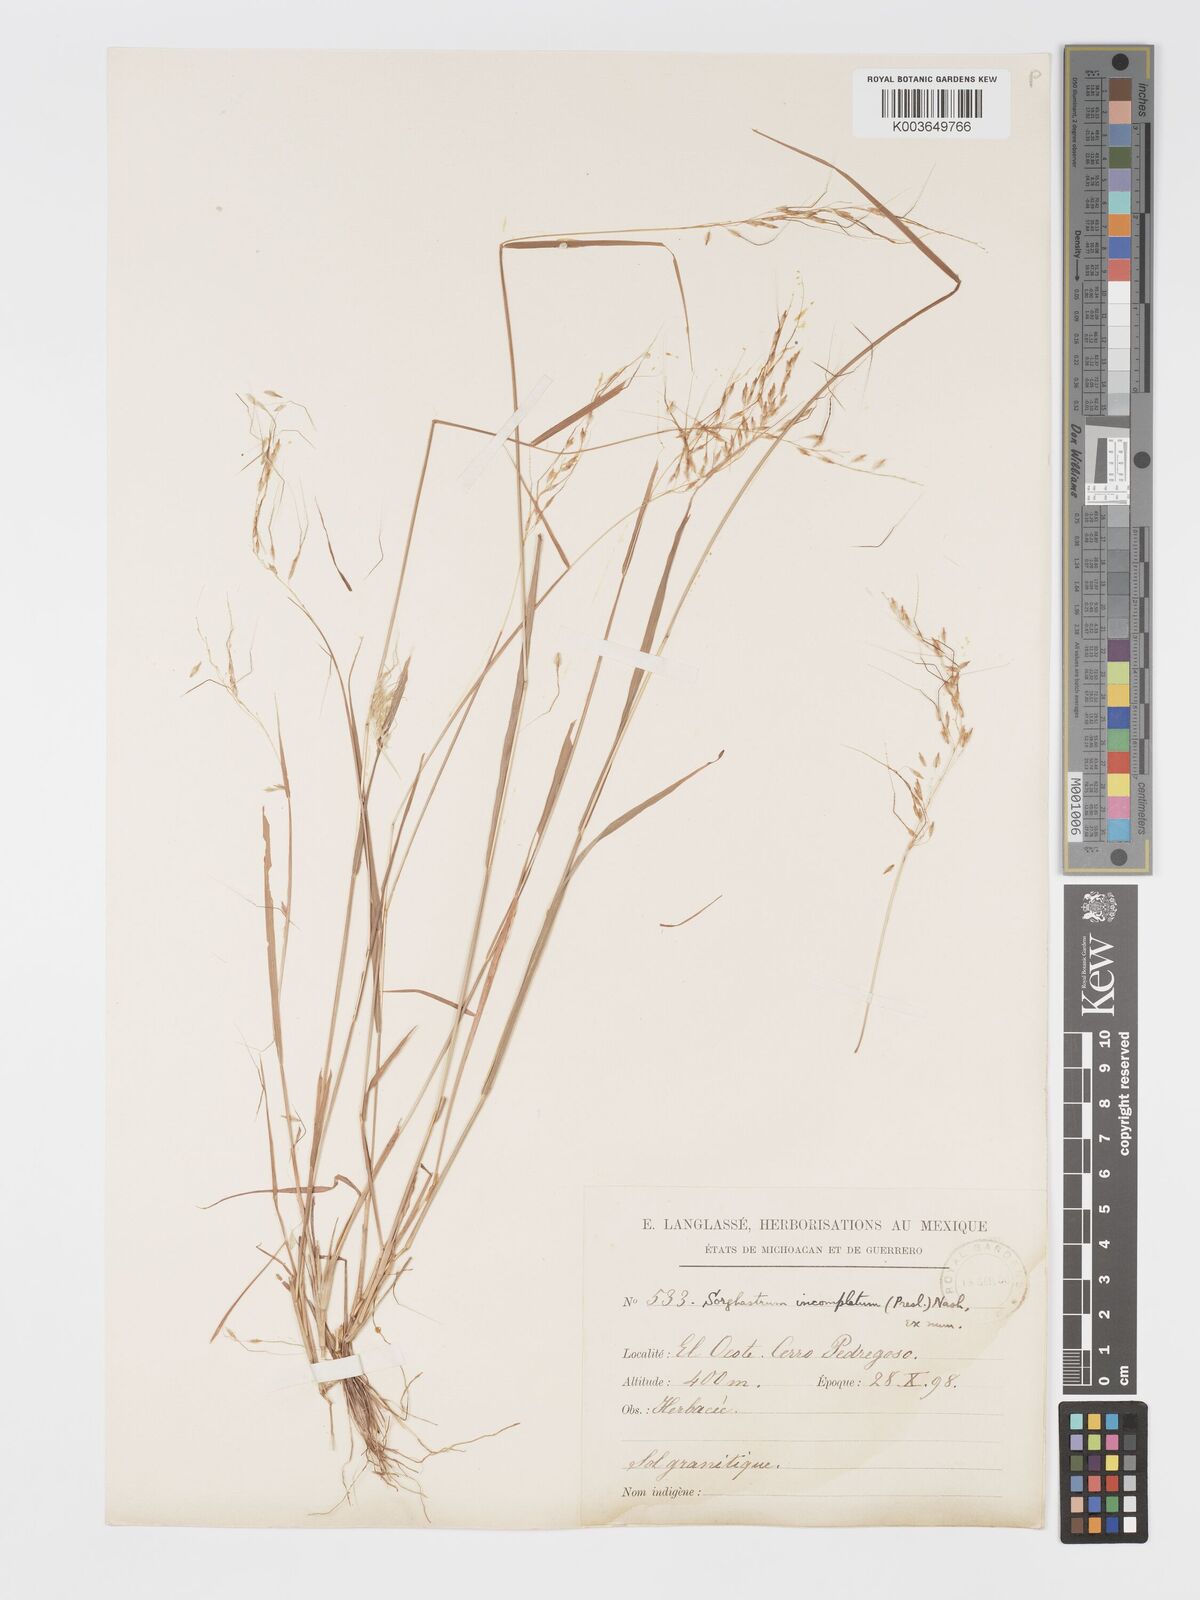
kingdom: Plantae
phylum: Tracheophyta
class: Liliopsida
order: Poales
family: Poaceae
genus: Sorghastrum
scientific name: Sorghastrum incompletum
